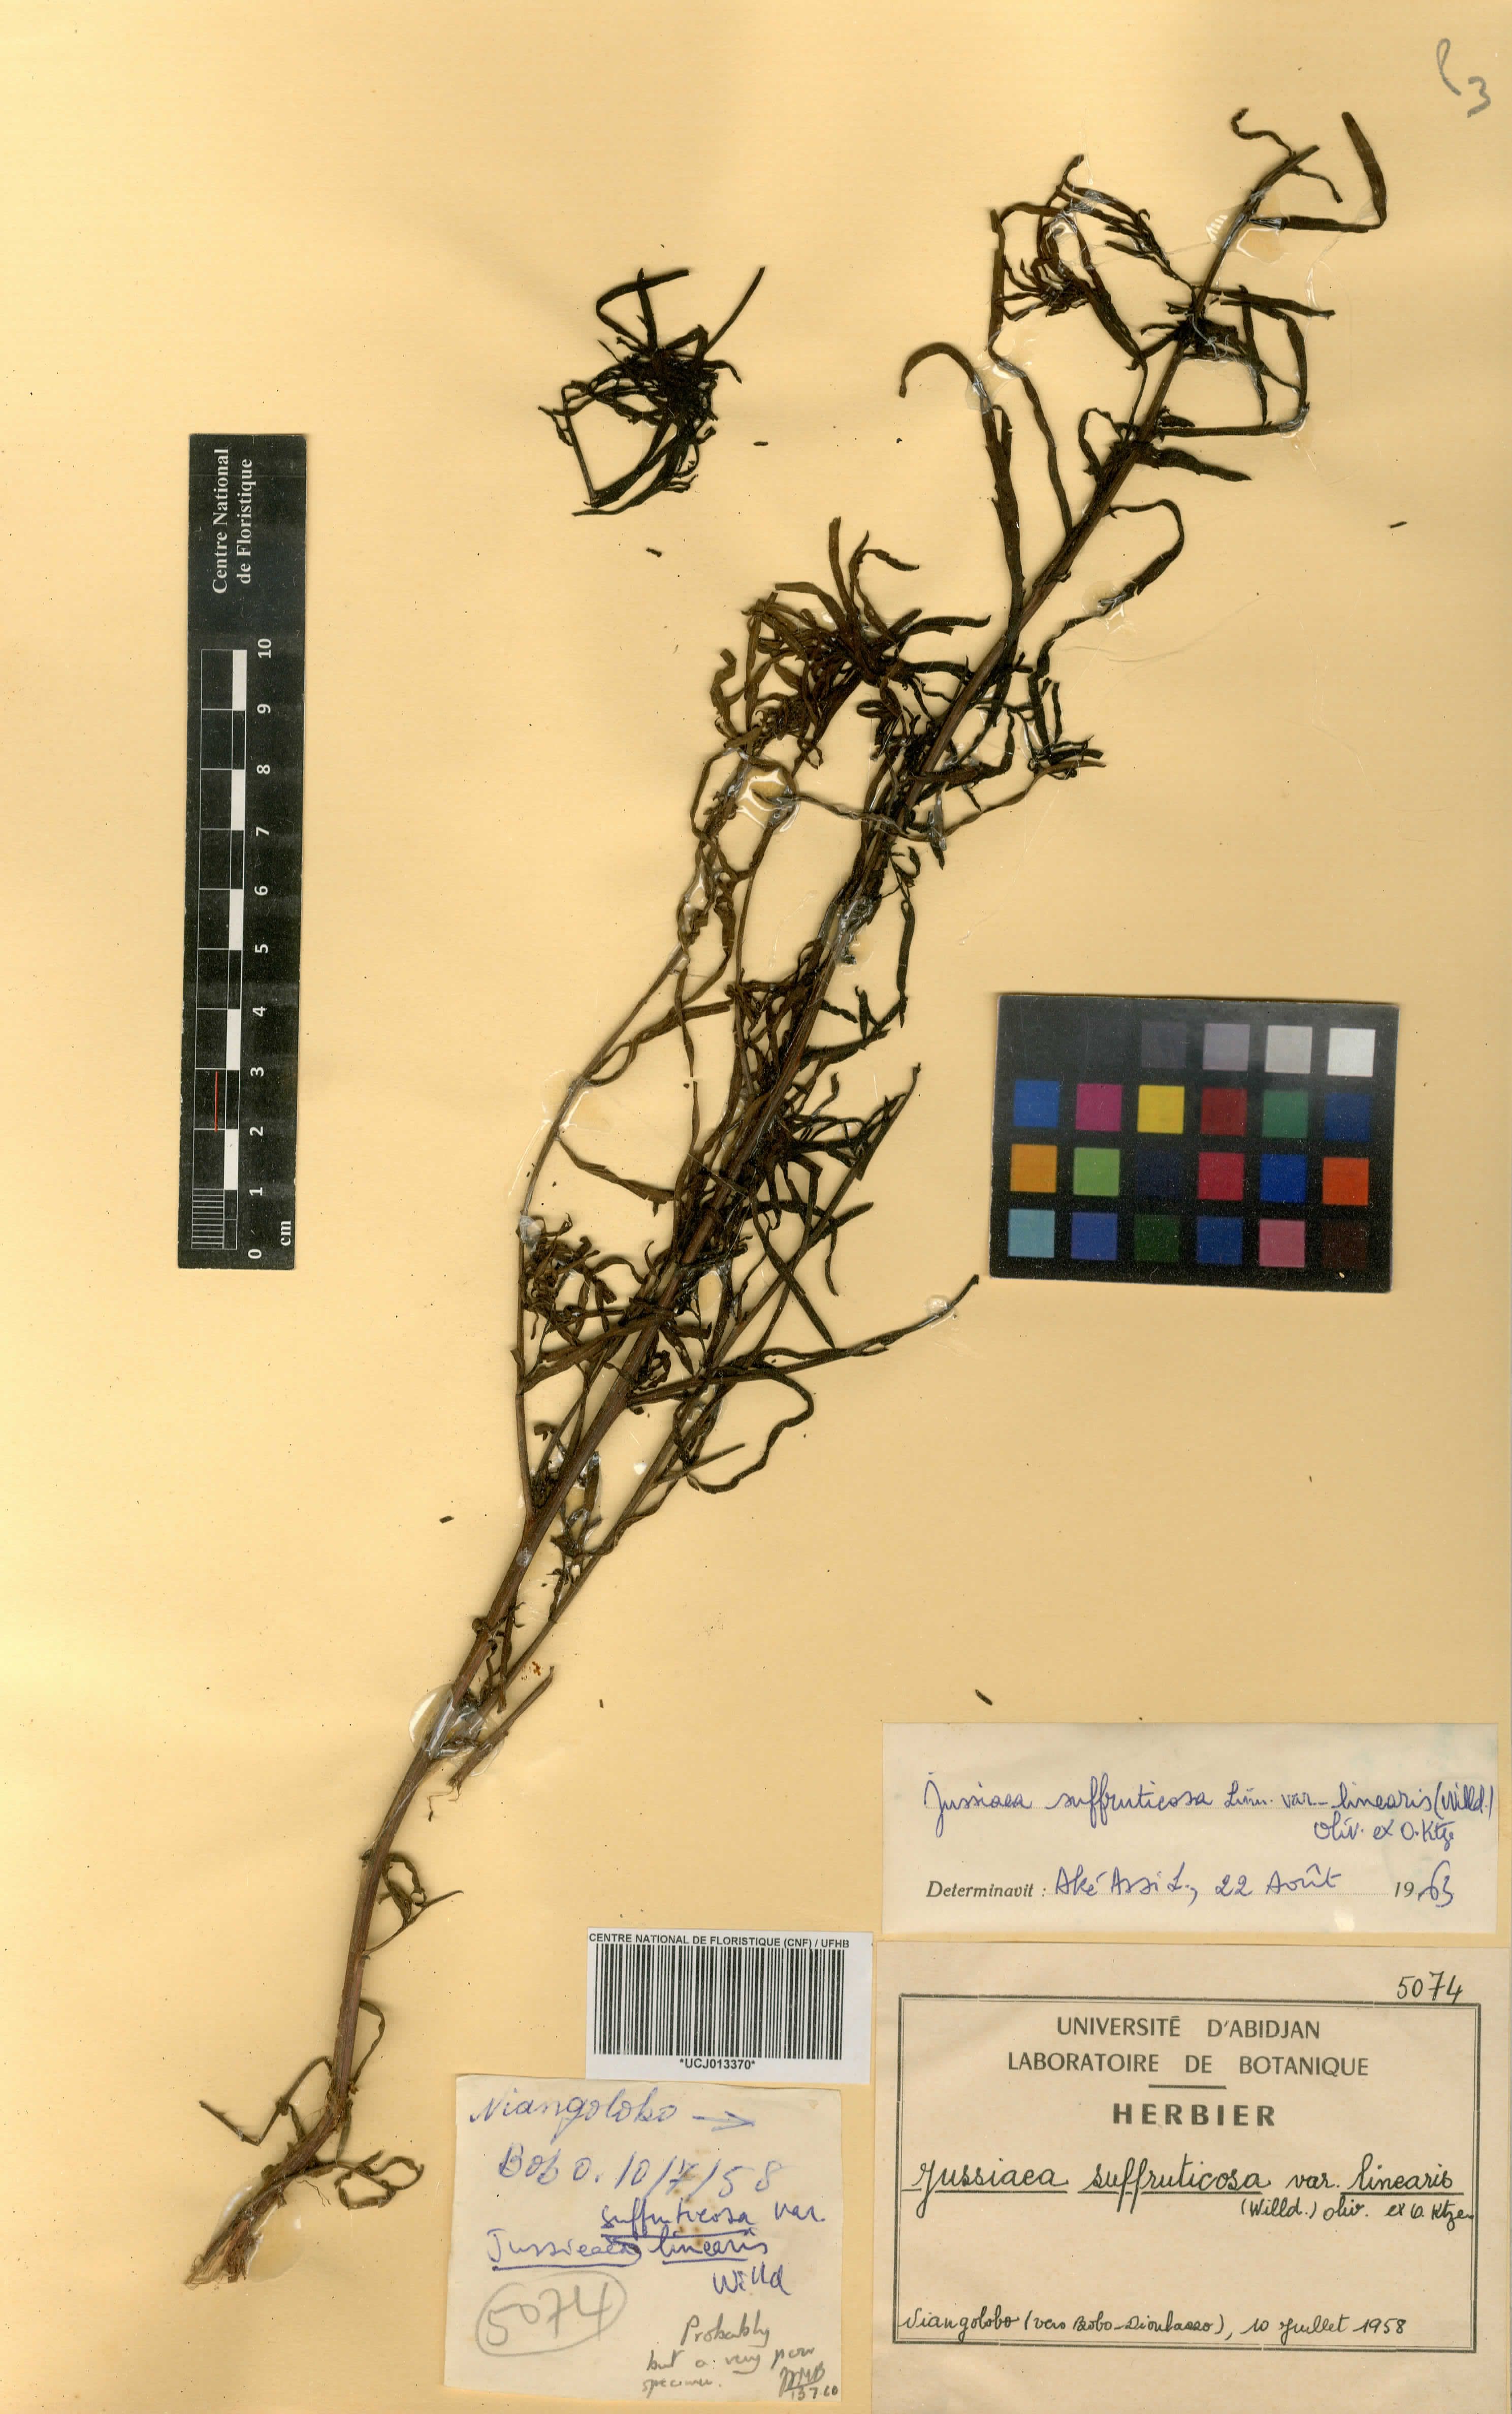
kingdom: Plantae
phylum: Tracheophyta
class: Magnoliopsida
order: Myrtales
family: Onagraceae
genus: Ludwigia
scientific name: Ludwigia octovalvis
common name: Water-primrose
